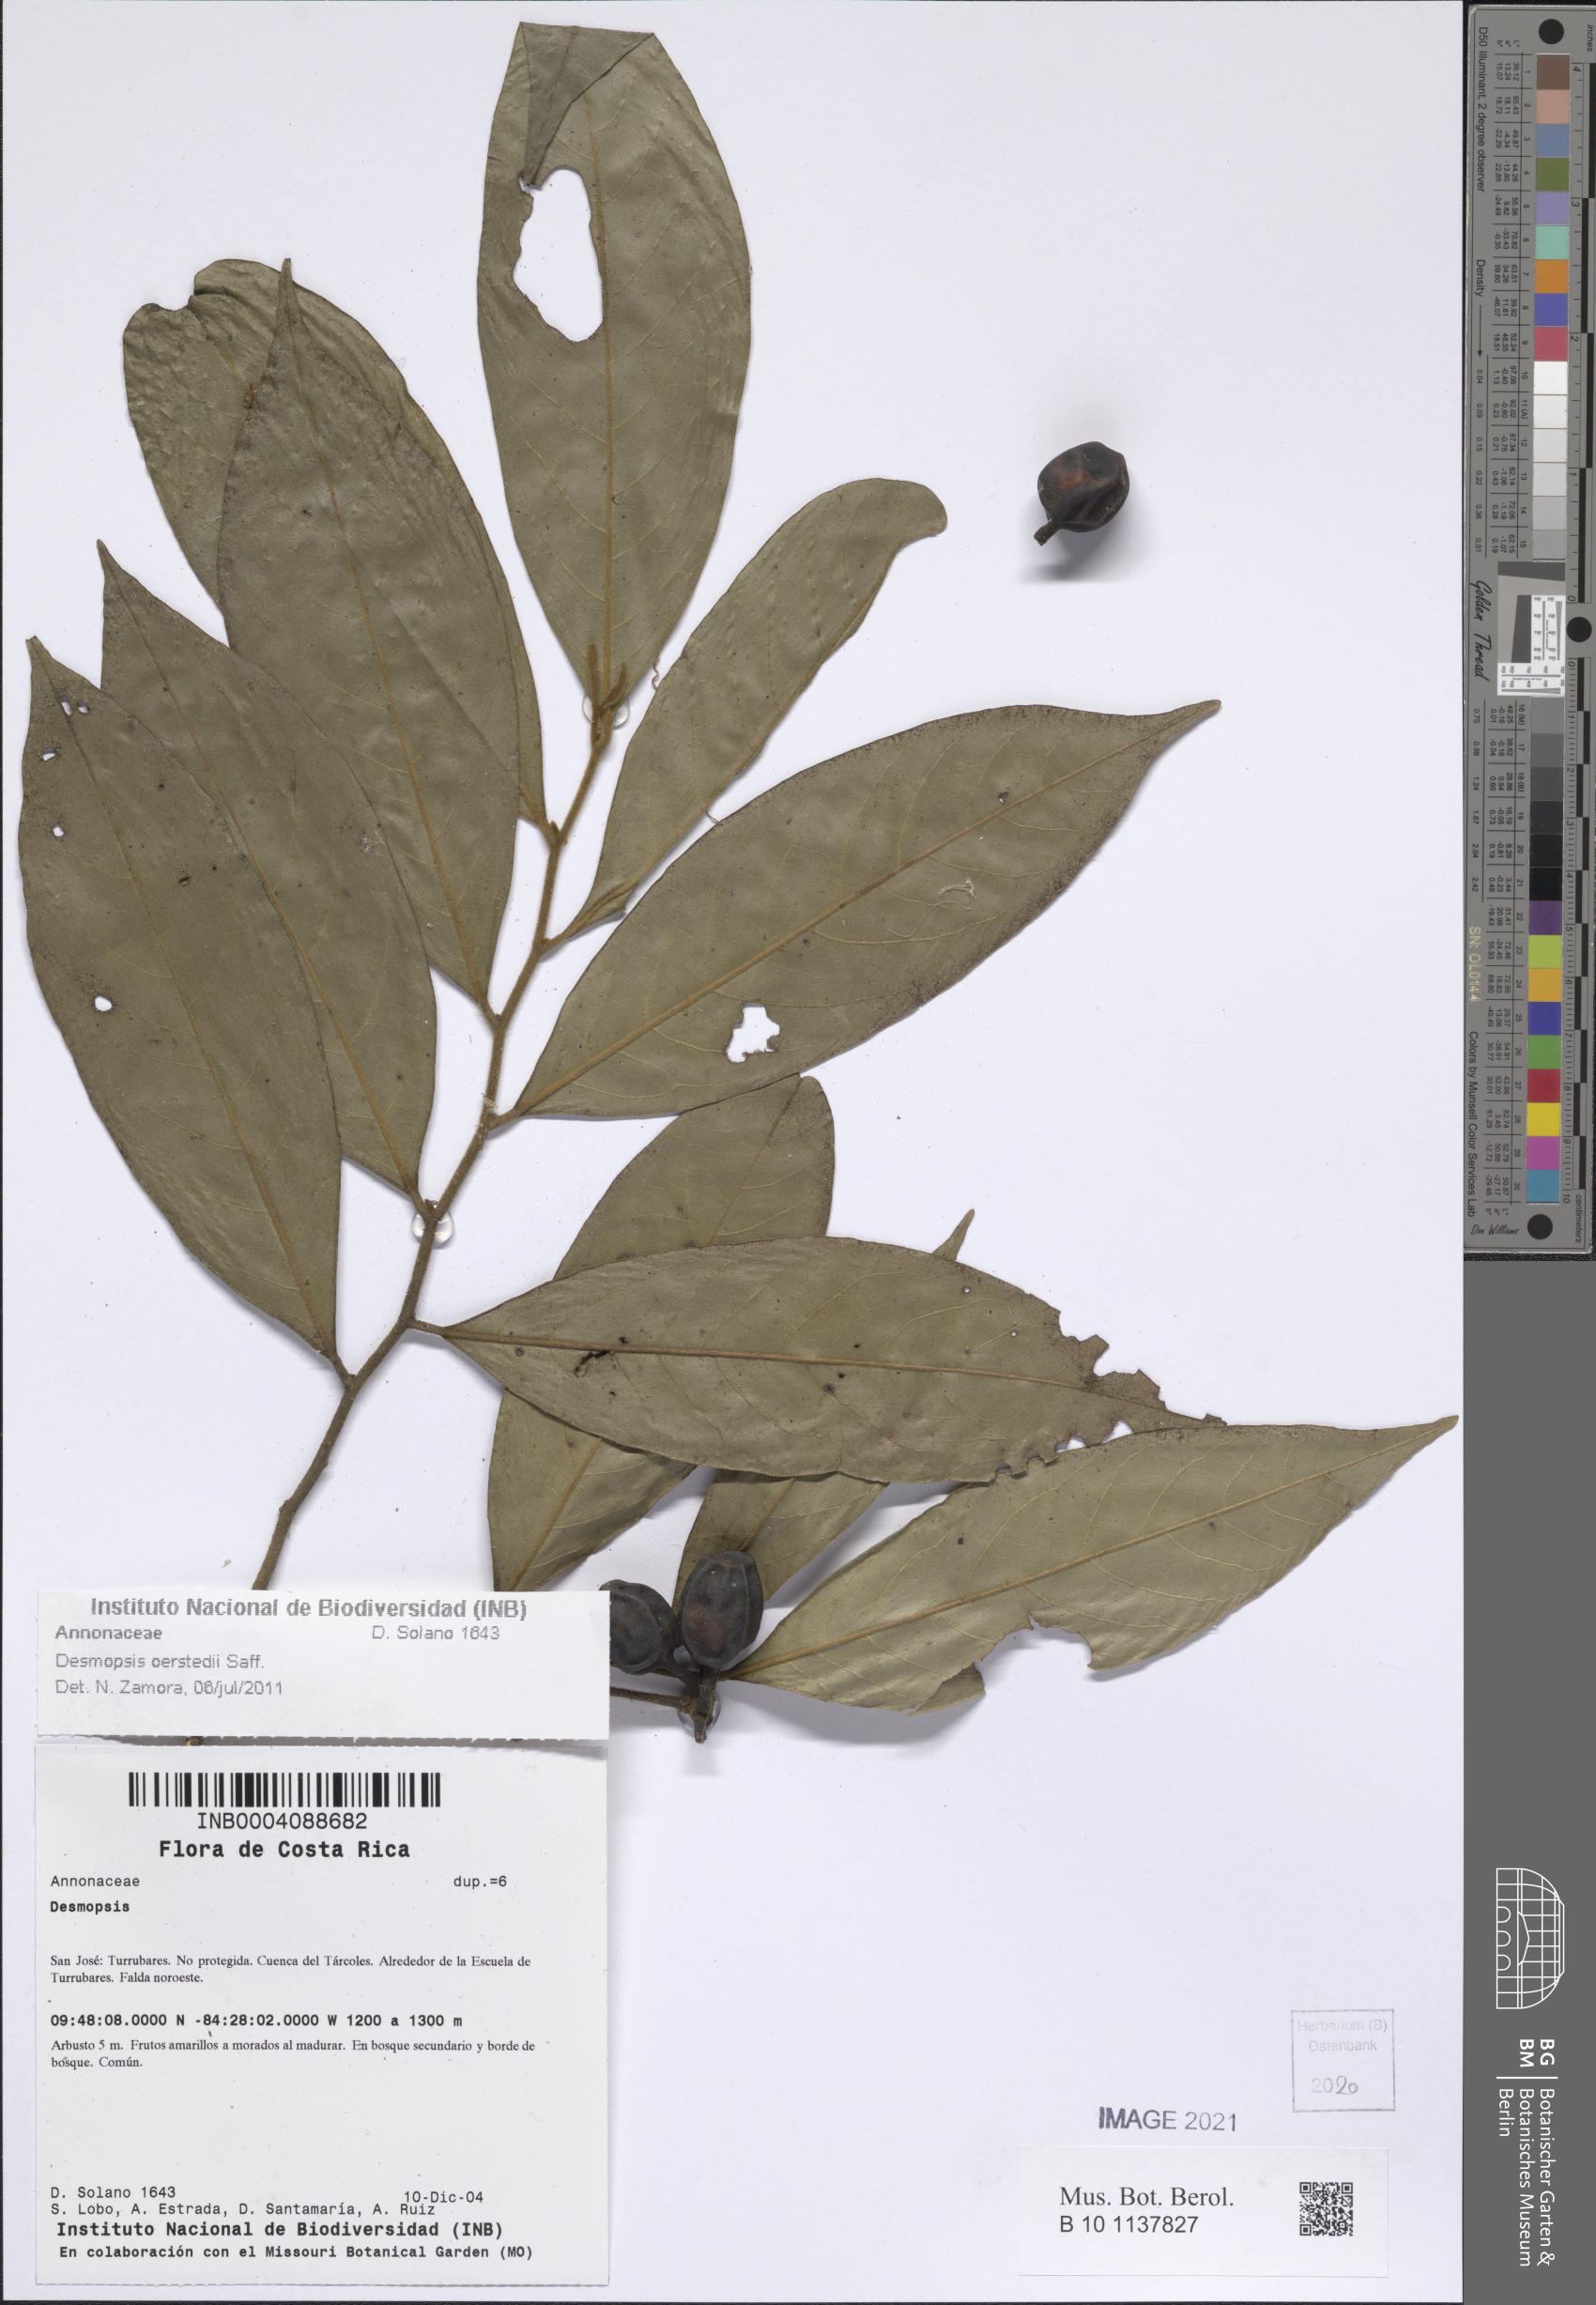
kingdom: Plantae
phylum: Tracheophyta
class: Magnoliopsida
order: Magnoliales
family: Annonaceae
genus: Desmopsis
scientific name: Desmopsis oerstedii
